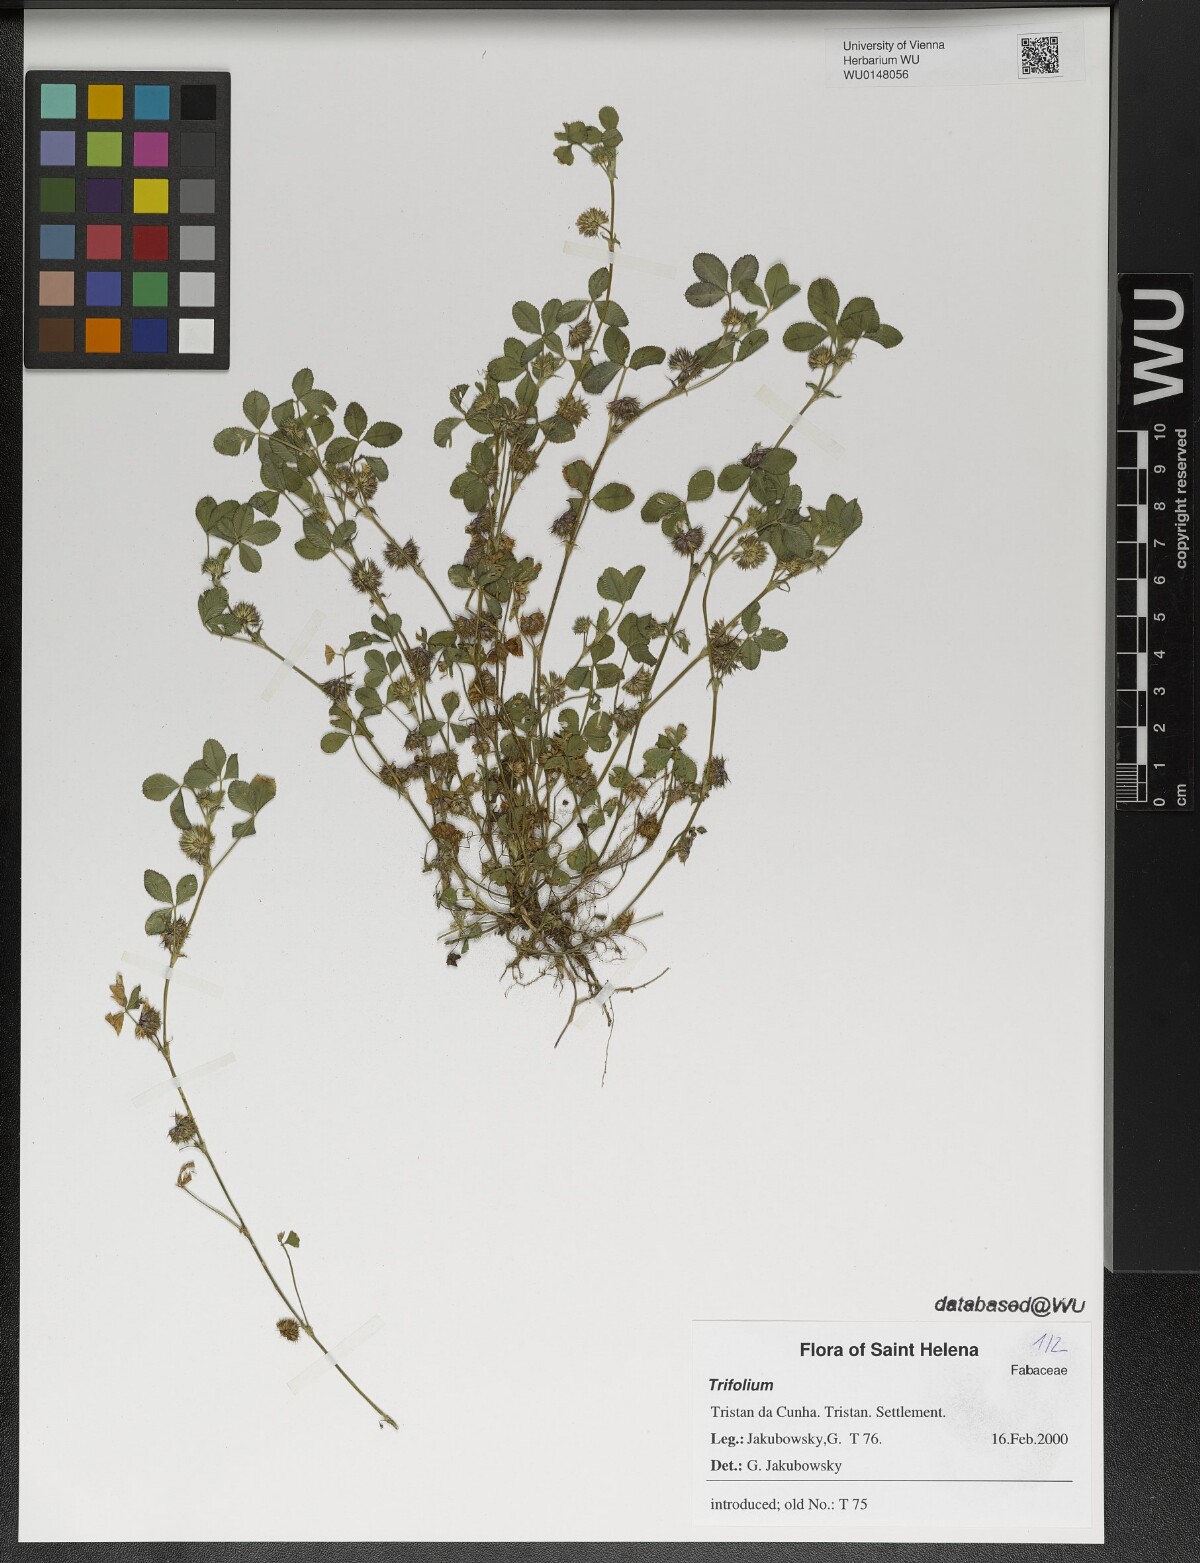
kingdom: Plantae
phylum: Tracheophyta
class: Magnoliopsida
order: Fabales
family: Fabaceae
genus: Trifolium
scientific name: Trifolium
